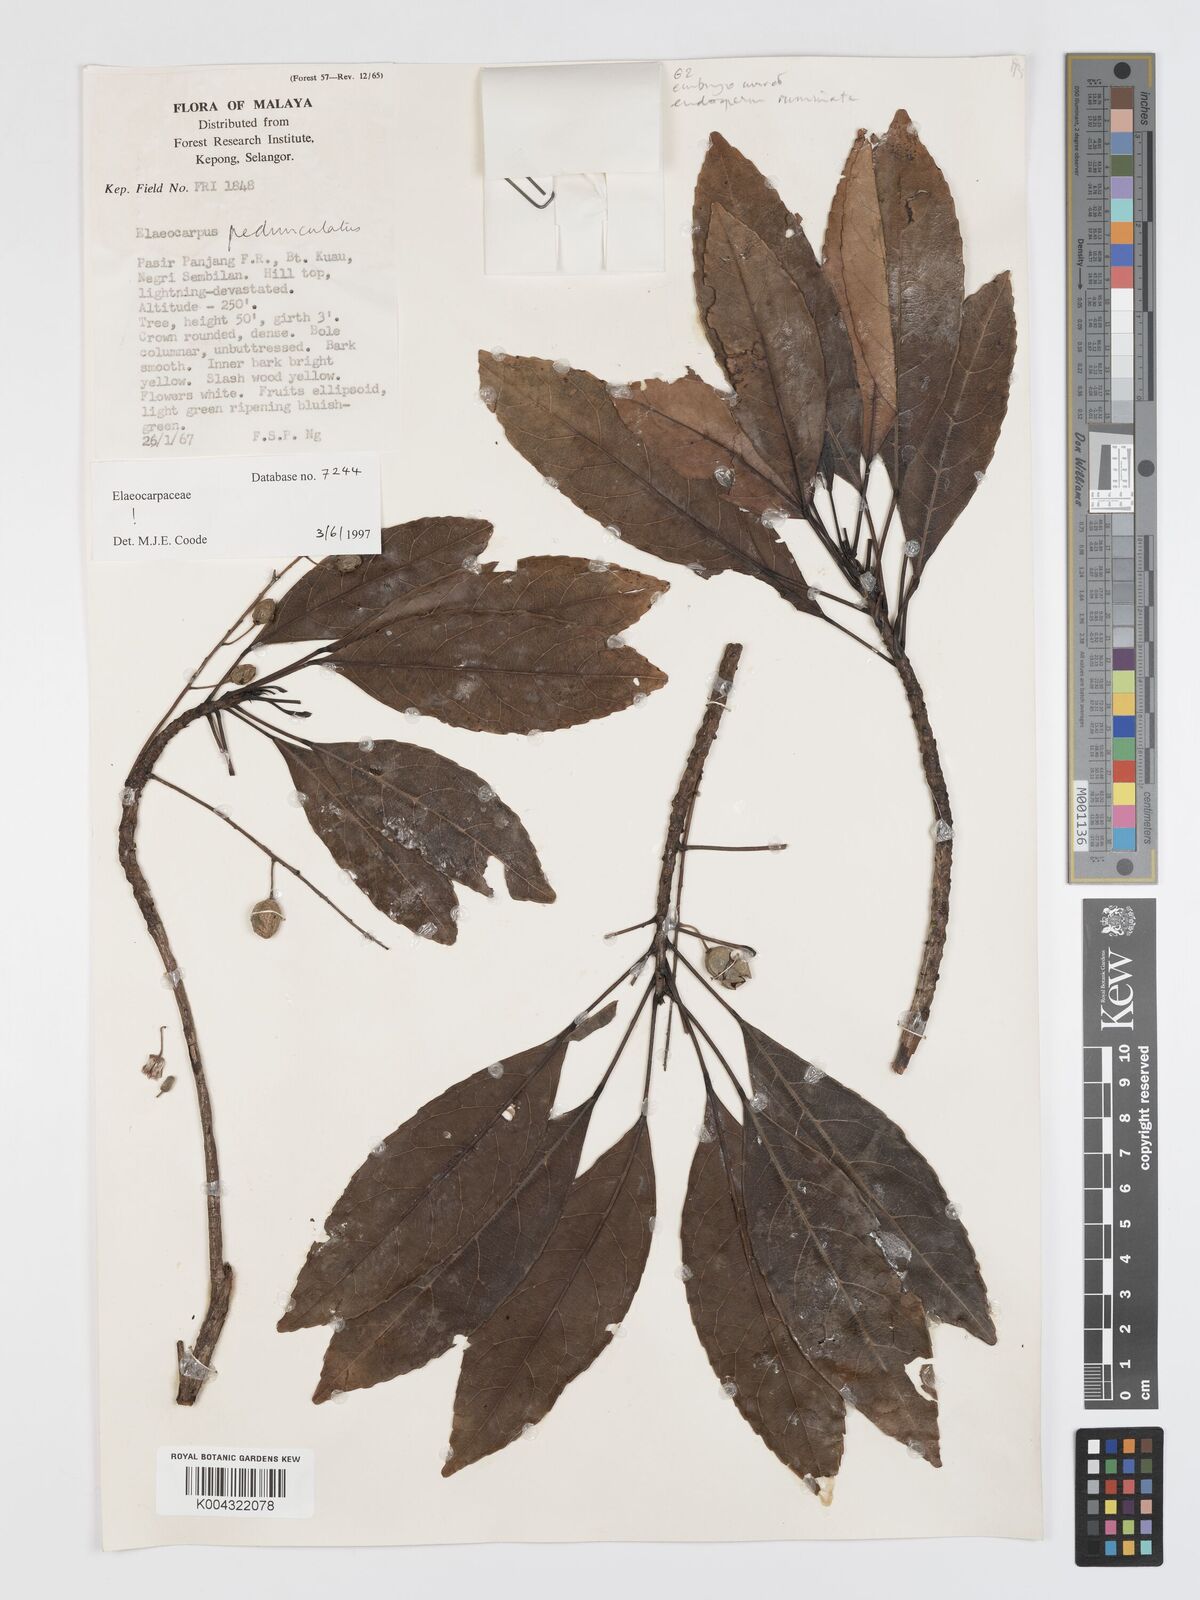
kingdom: Plantae
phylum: Tracheophyta
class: Magnoliopsida
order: Oxalidales
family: Elaeocarpaceae
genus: Elaeocarpus
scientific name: Elaeocarpus pedunculatus
